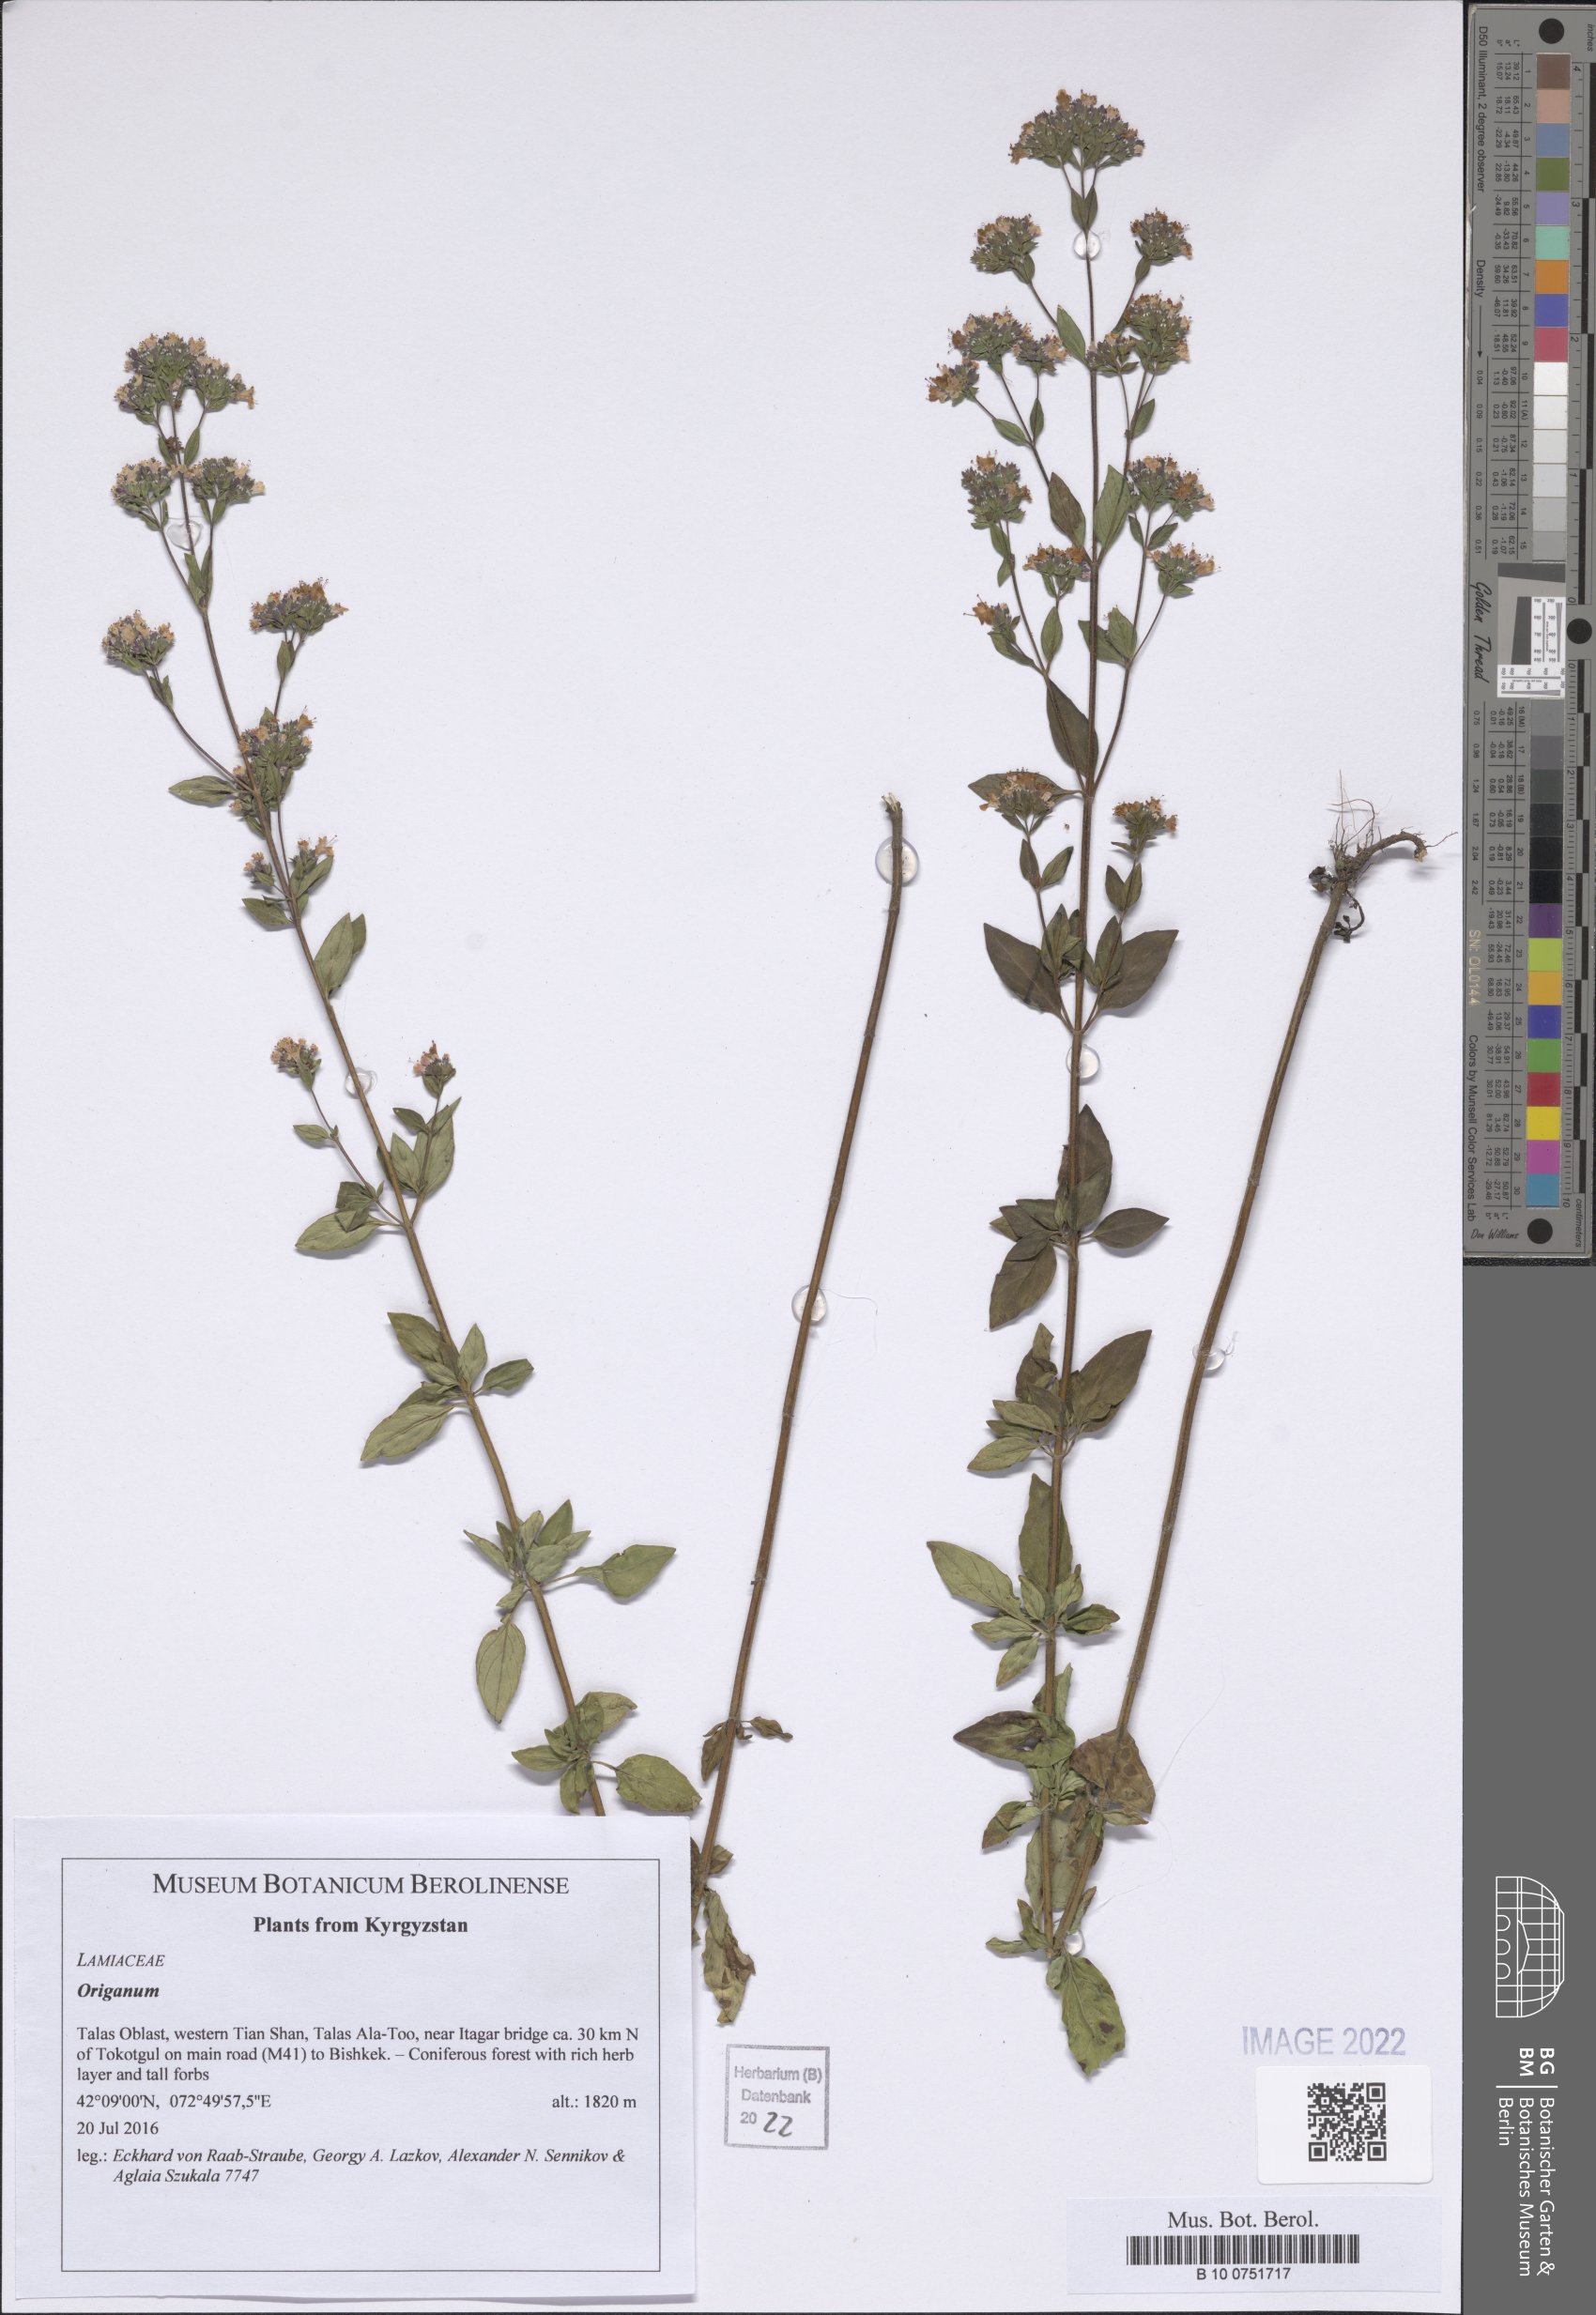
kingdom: Plantae
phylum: Tracheophyta
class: Magnoliopsida
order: Lamiales
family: Lamiaceae
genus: Origanum
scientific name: Origanum
